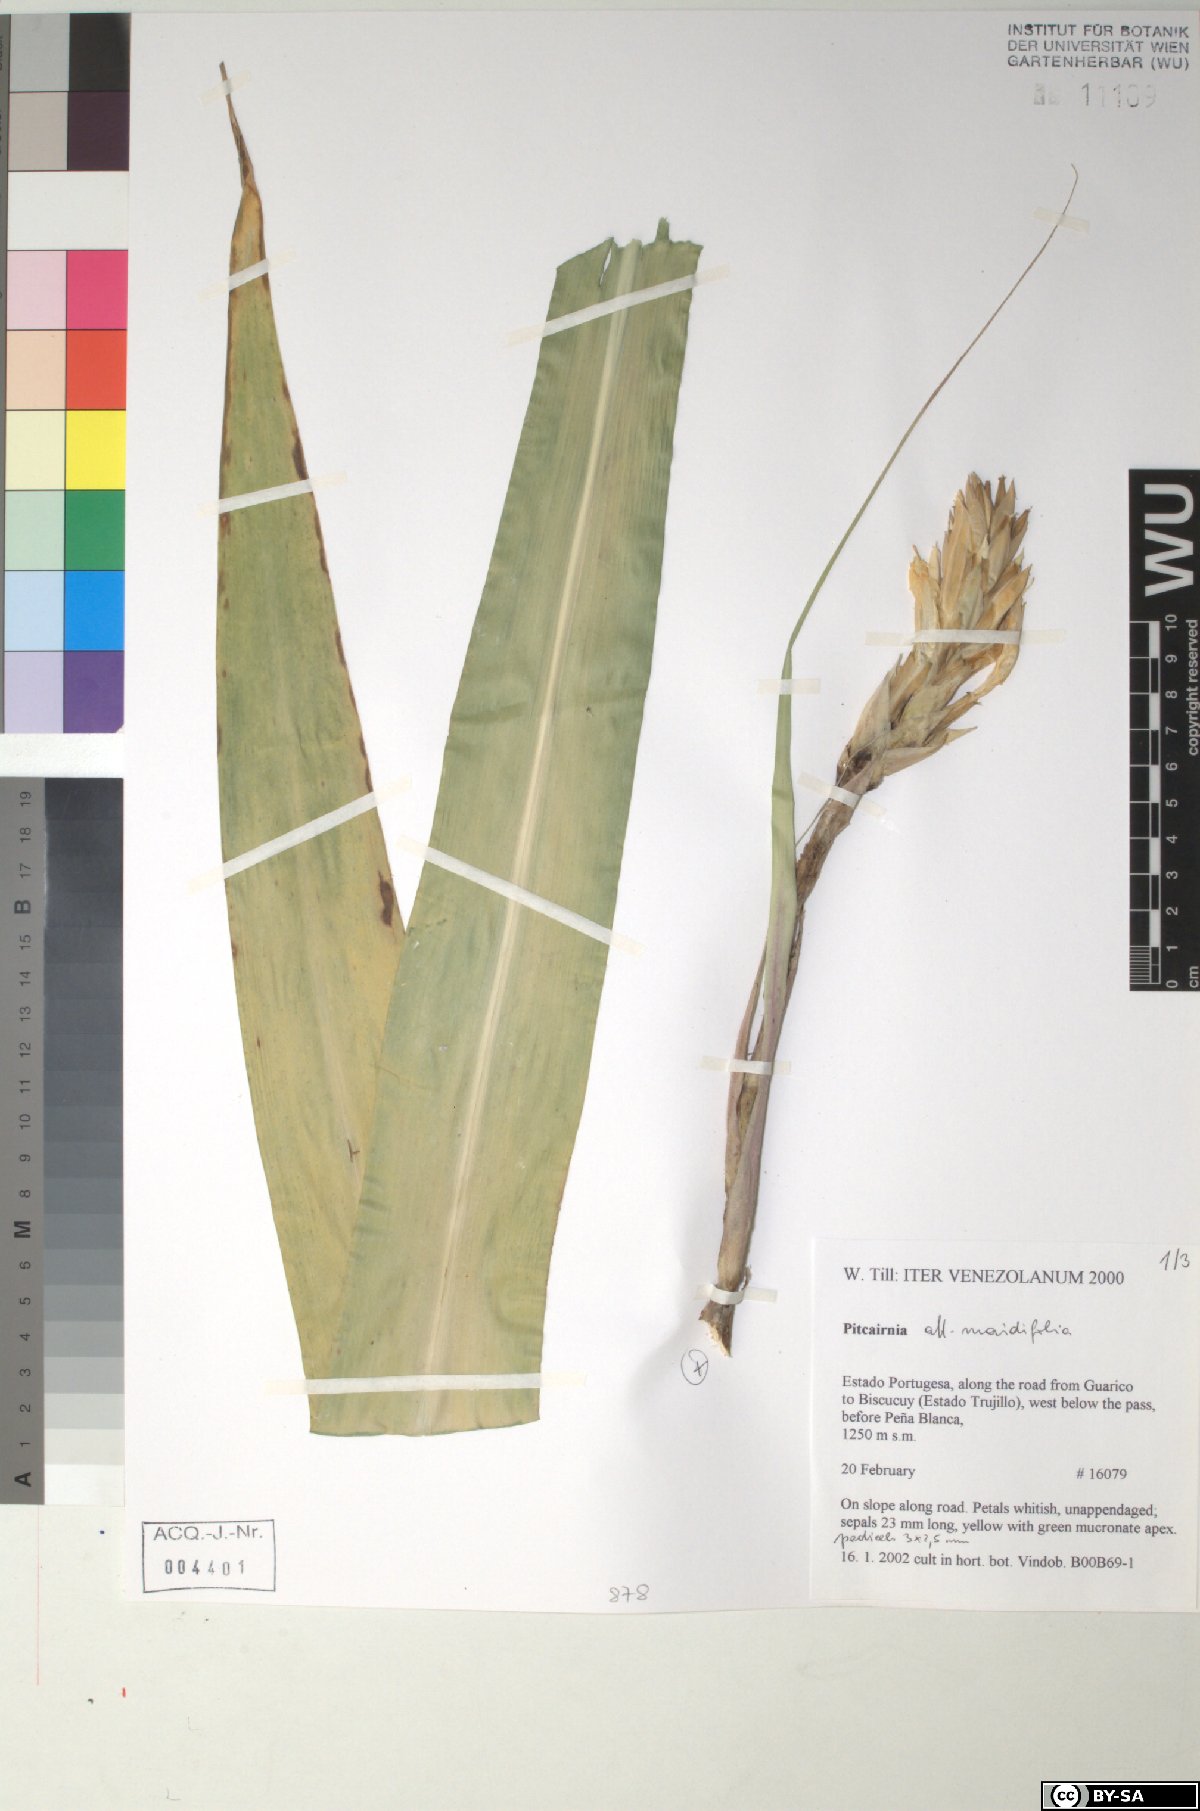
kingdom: Plantae
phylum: Tracheophyta
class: Liliopsida
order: Poales
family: Bromeliaceae
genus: Pitcairnia
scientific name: Pitcairnia albolutea
